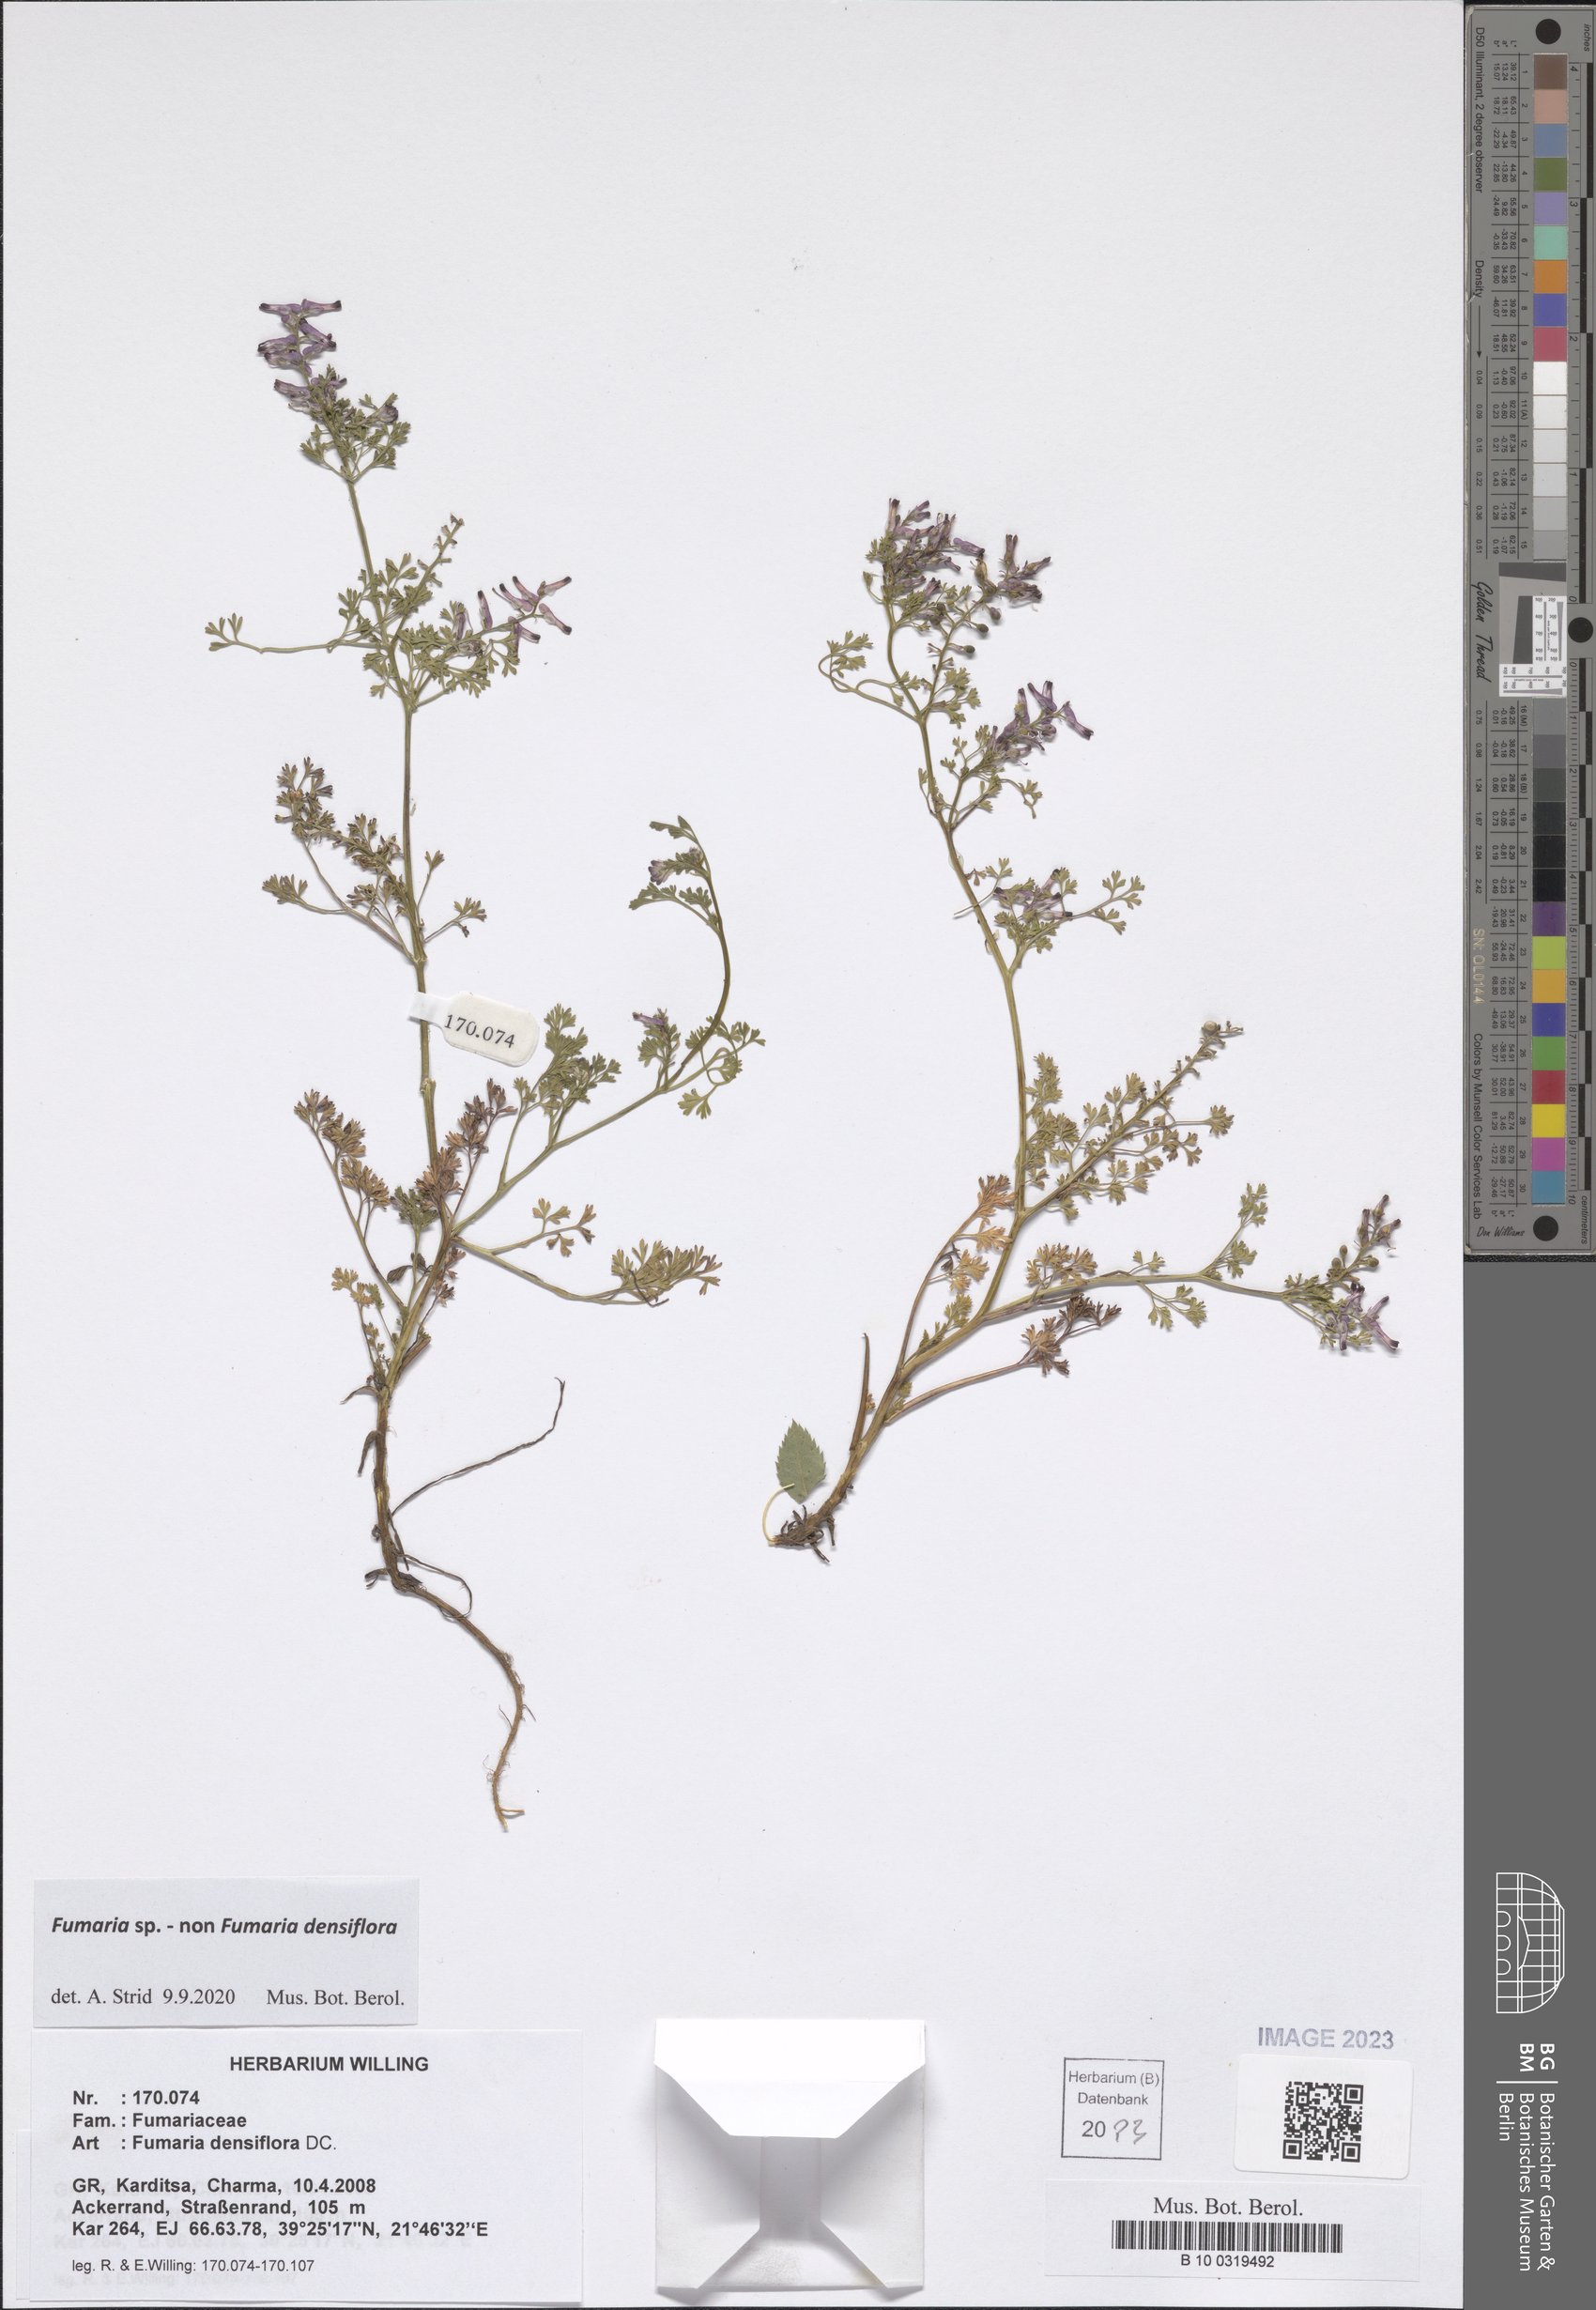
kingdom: Plantae
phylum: Tracheophyta
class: Magnoliopsida
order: Ranunculales
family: Papaveraceae
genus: Fumaria
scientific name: Fumaria
